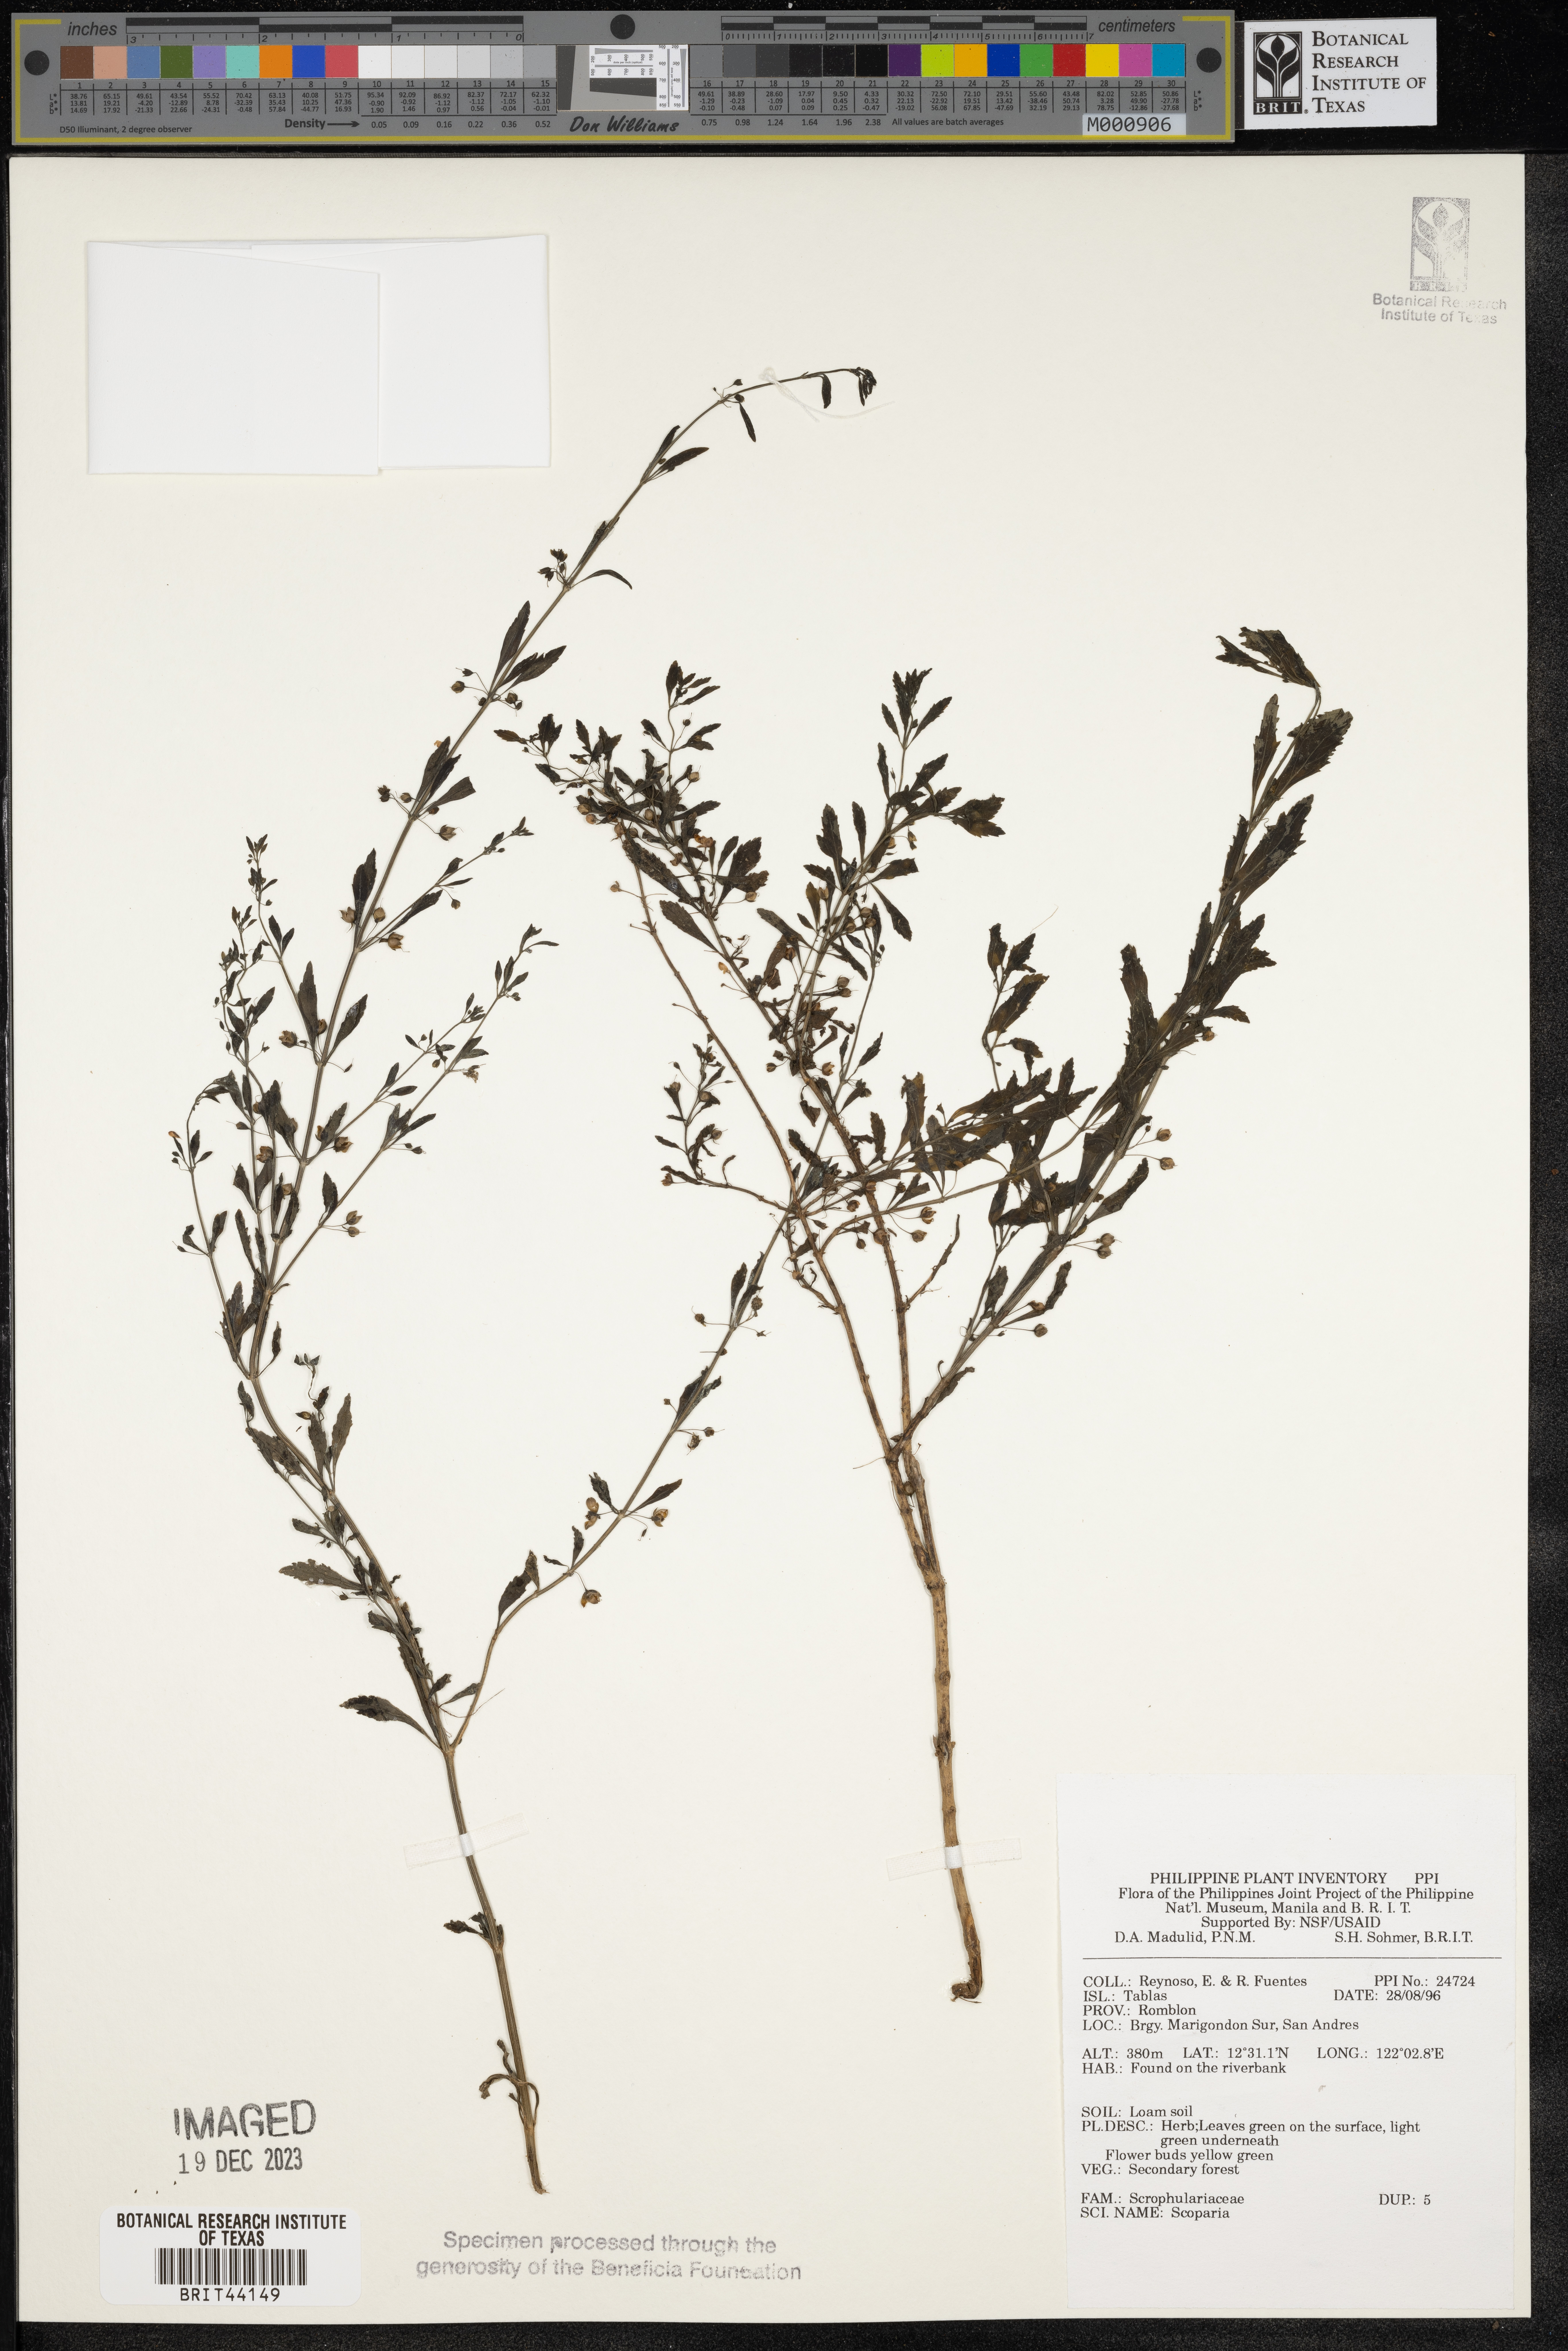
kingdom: Plantae
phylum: Tracheophyta
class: Magnoliopsida
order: Lamiales
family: Plantaginaceae
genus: Scoparia
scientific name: Scoparia
